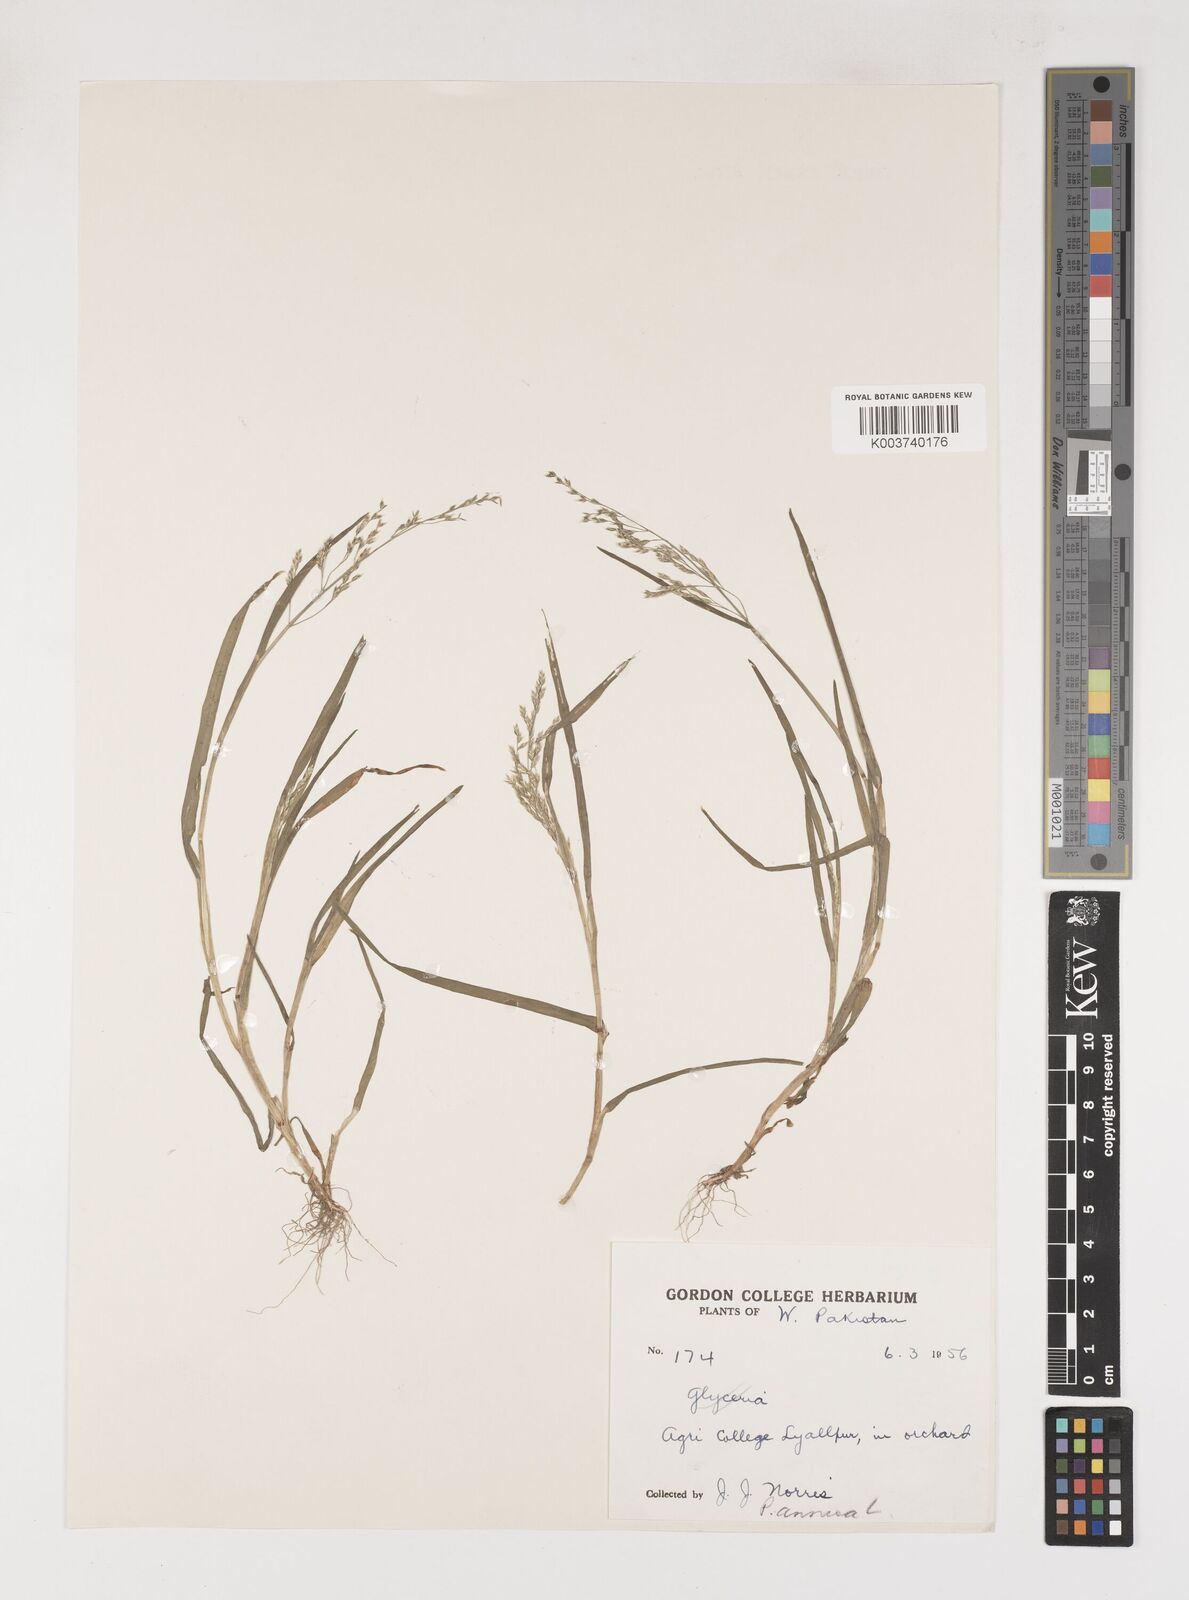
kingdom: Plantae
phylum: Tracheophyta
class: Liliopsida
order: Poales
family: Poaceae
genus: Poa
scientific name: Poa annua
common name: Annual bluegrass
